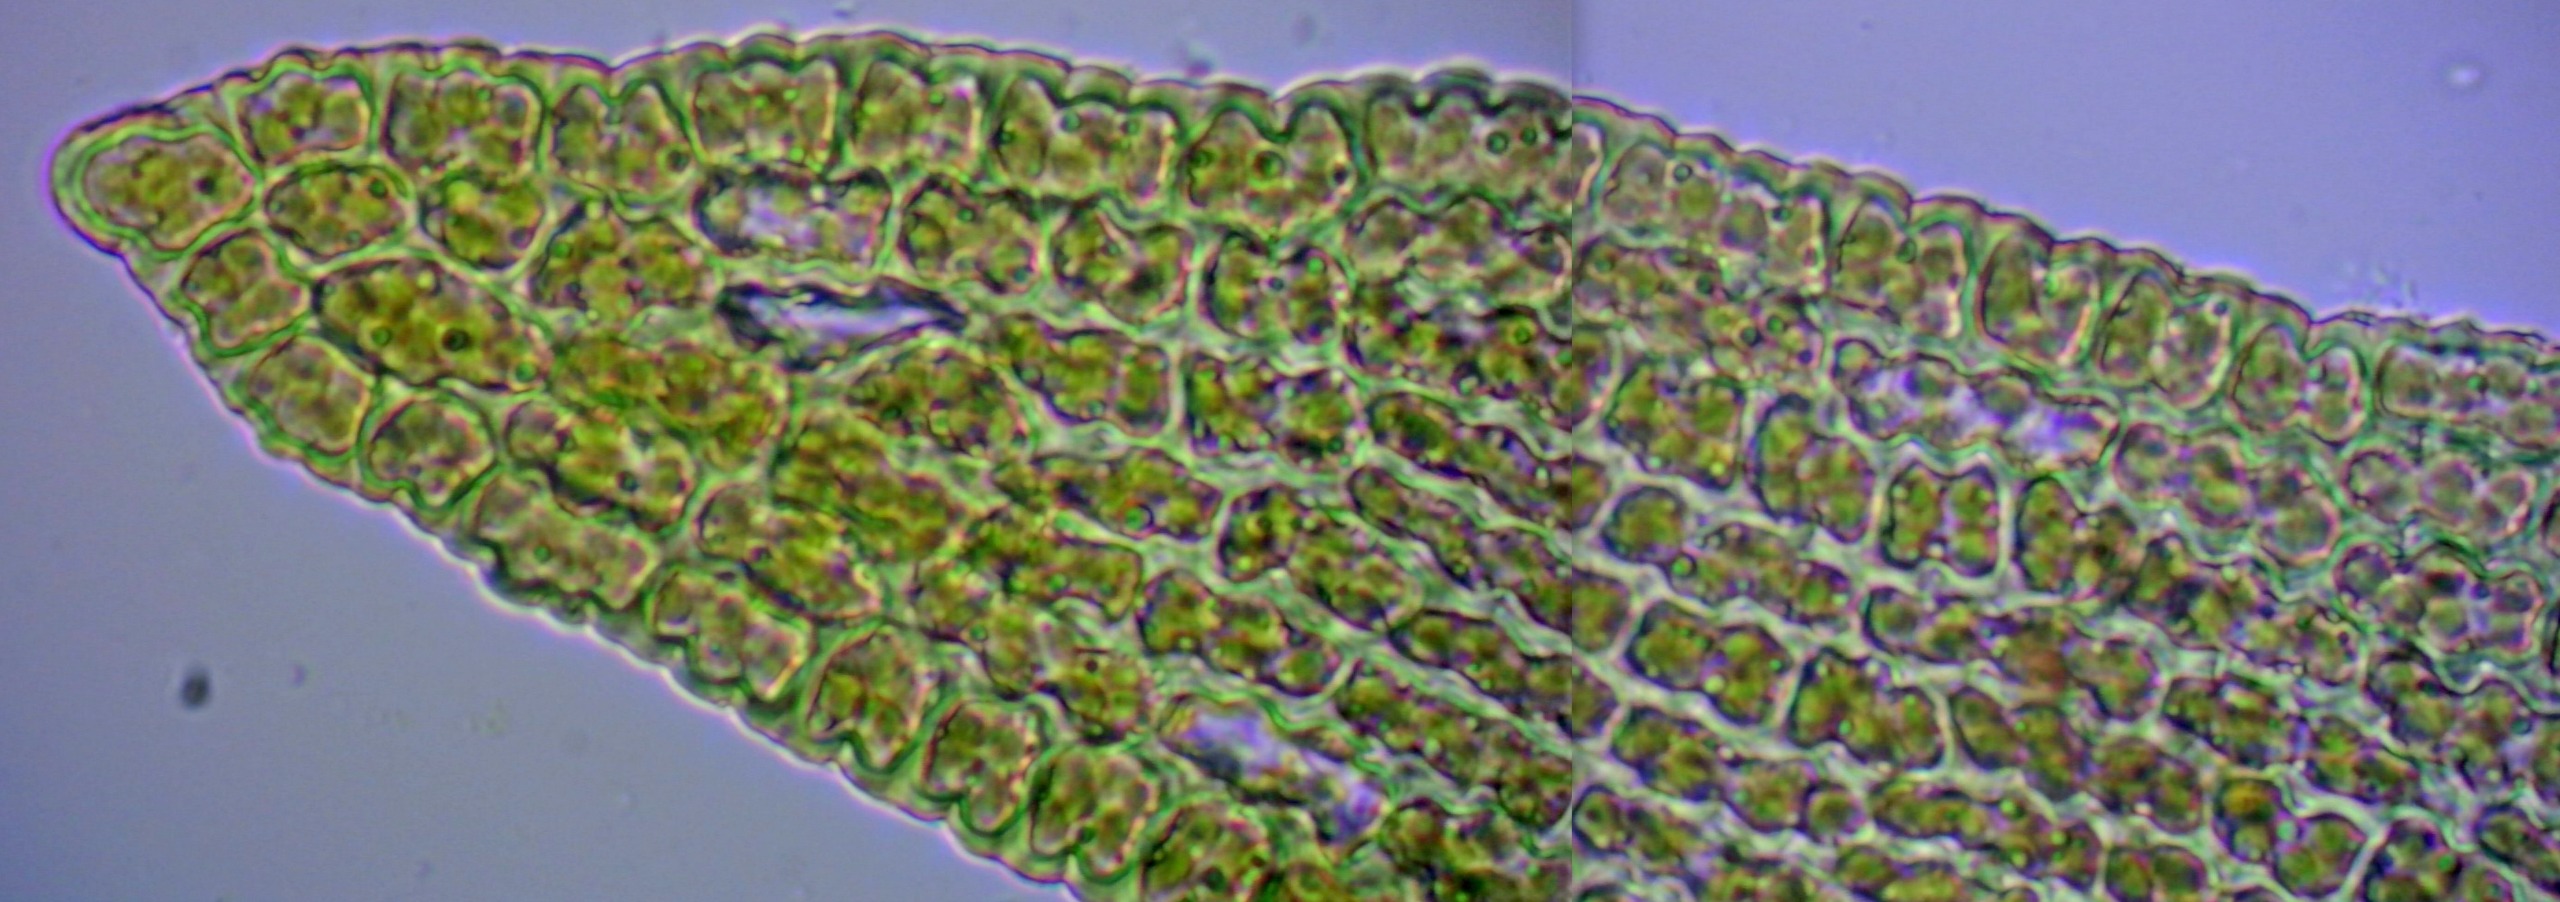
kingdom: Plantae
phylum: Bryophyta
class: Bryopsida
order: Grimmiales
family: Grimmiaceae
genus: Dilutineuron
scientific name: Dilutineuron fasciculare
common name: Knippe-børstemos
